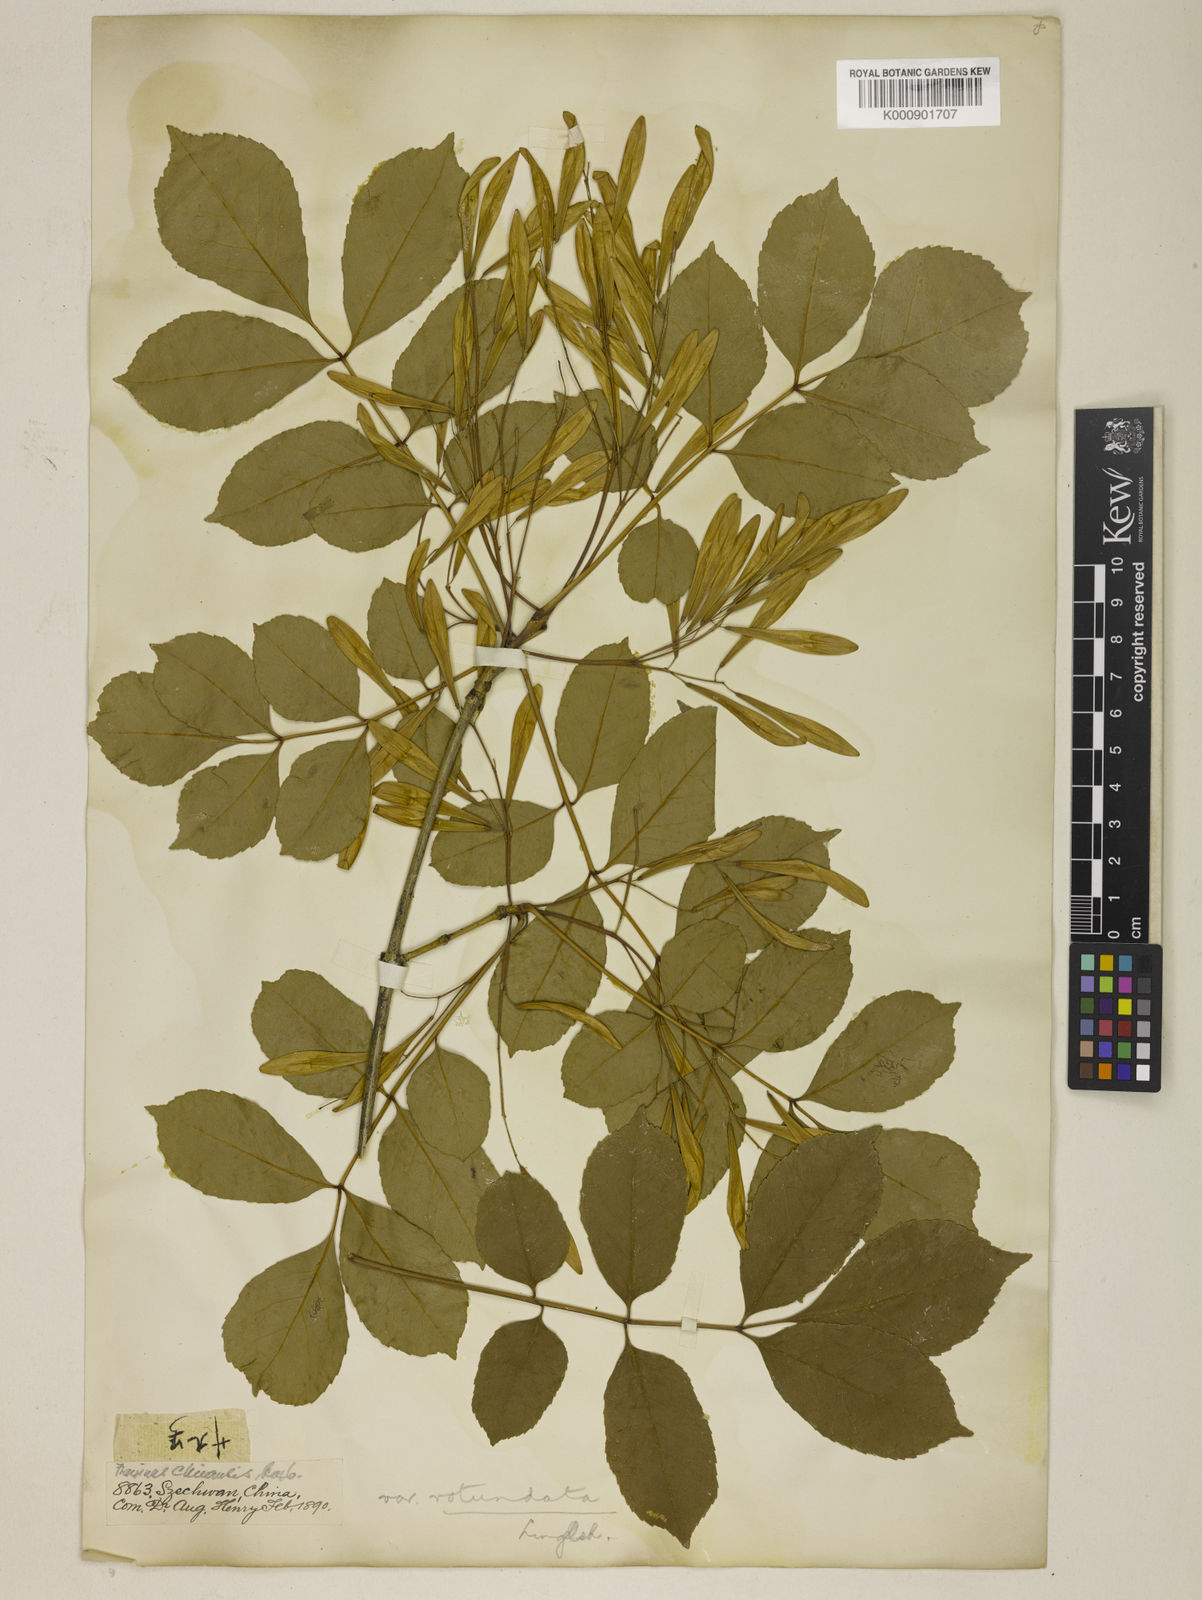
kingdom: Plantae
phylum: Tracheophyta
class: Magnoliopsida
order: Lamiales
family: Oleaceae
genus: Fraxinus
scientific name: Fraxinus chinensis
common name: Chinese ash
